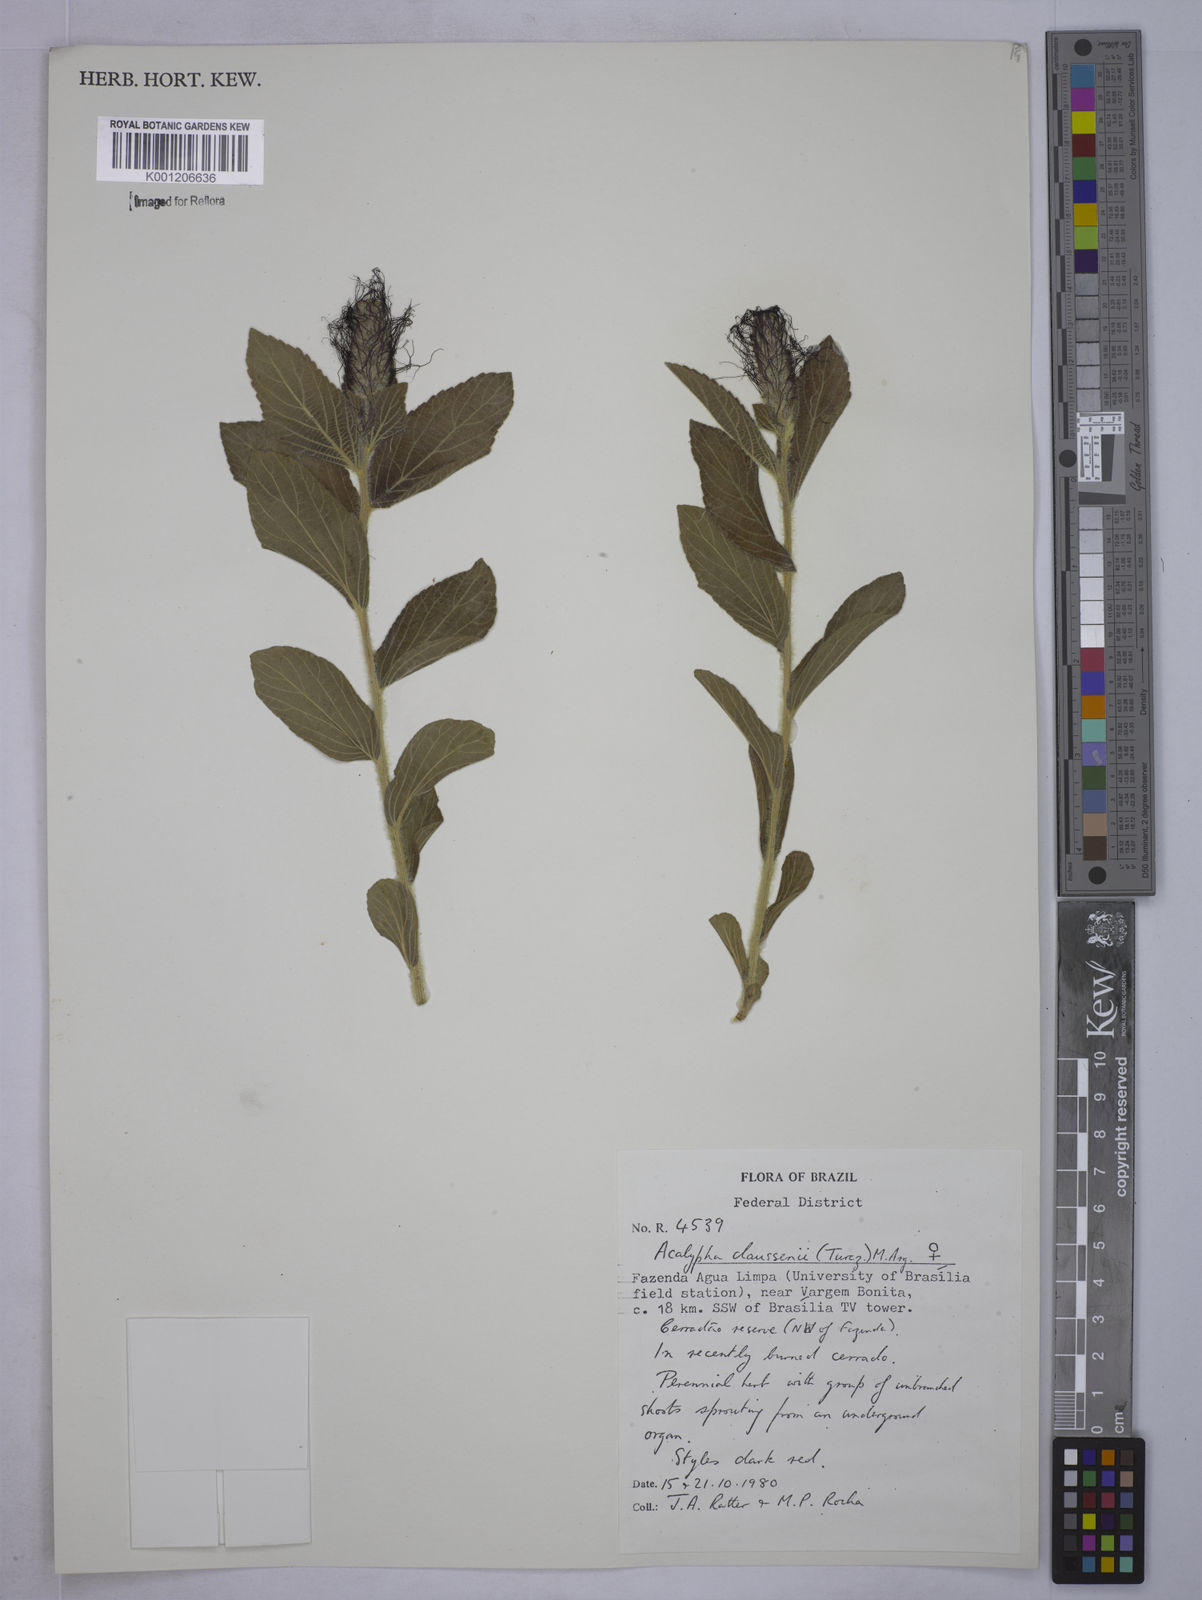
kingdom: Plantae
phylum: Tracheophyta
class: Magnoliopsida
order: Malpighiales
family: Euphorbiaceae
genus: Acalypha
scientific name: Acalypha
